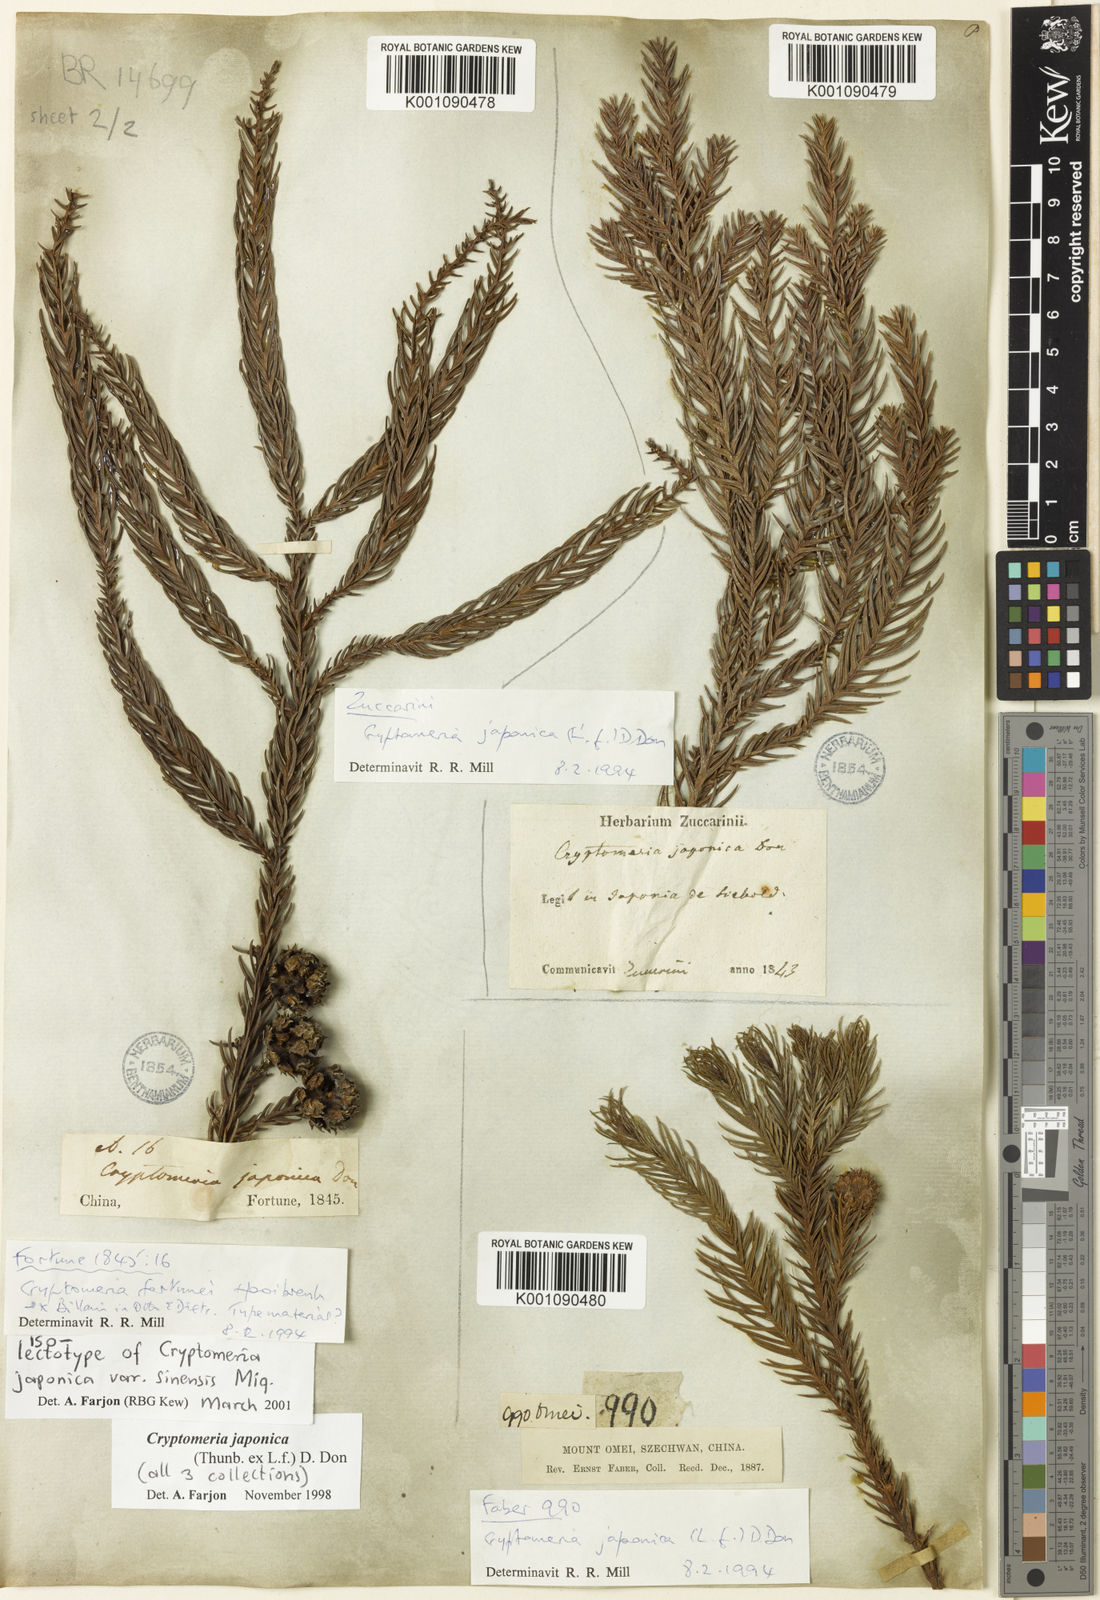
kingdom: Plantae
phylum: Tracheophyta
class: Pinopsida
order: Pinales
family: Cupressaceae
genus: Cryptomeria
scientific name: Cryptomeria japonica
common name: Japanese cedar
